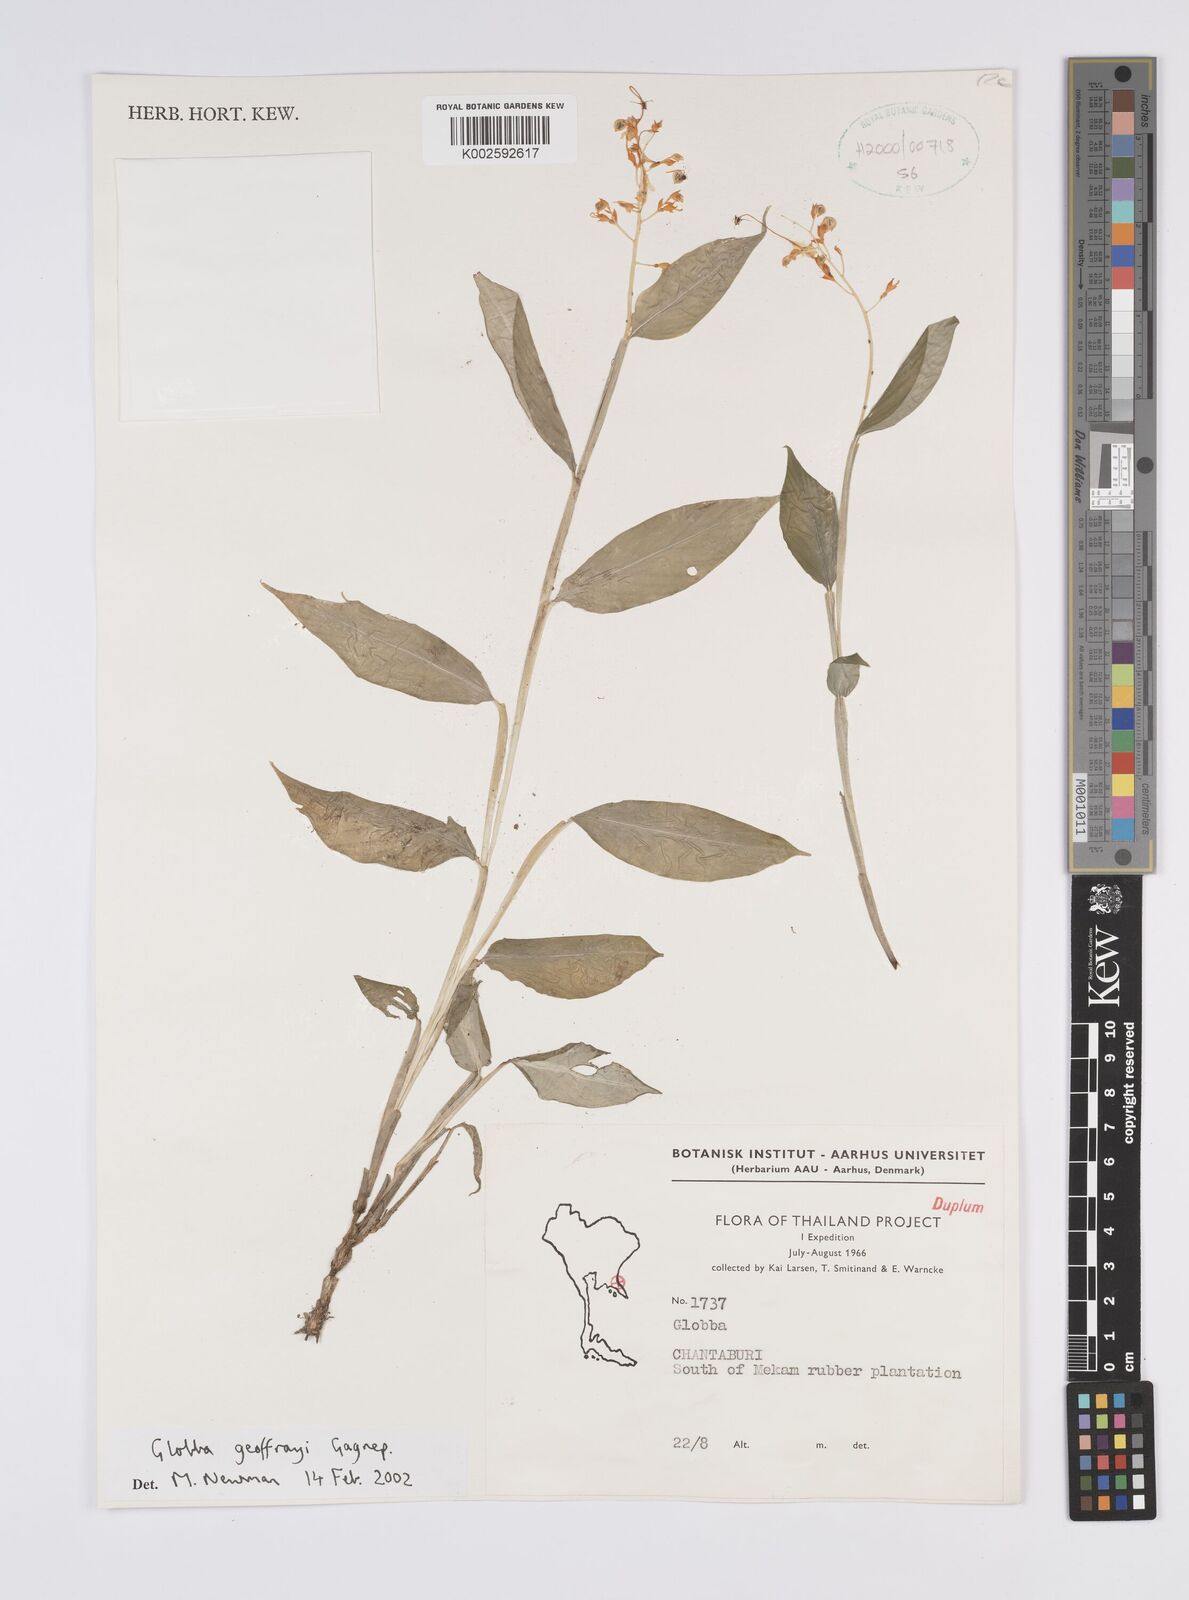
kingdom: Plantae
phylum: Tracheophyta
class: Liliopsida
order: Zingiberales
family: Zingiberaceae
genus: Globba
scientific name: Globba geoffrayi
